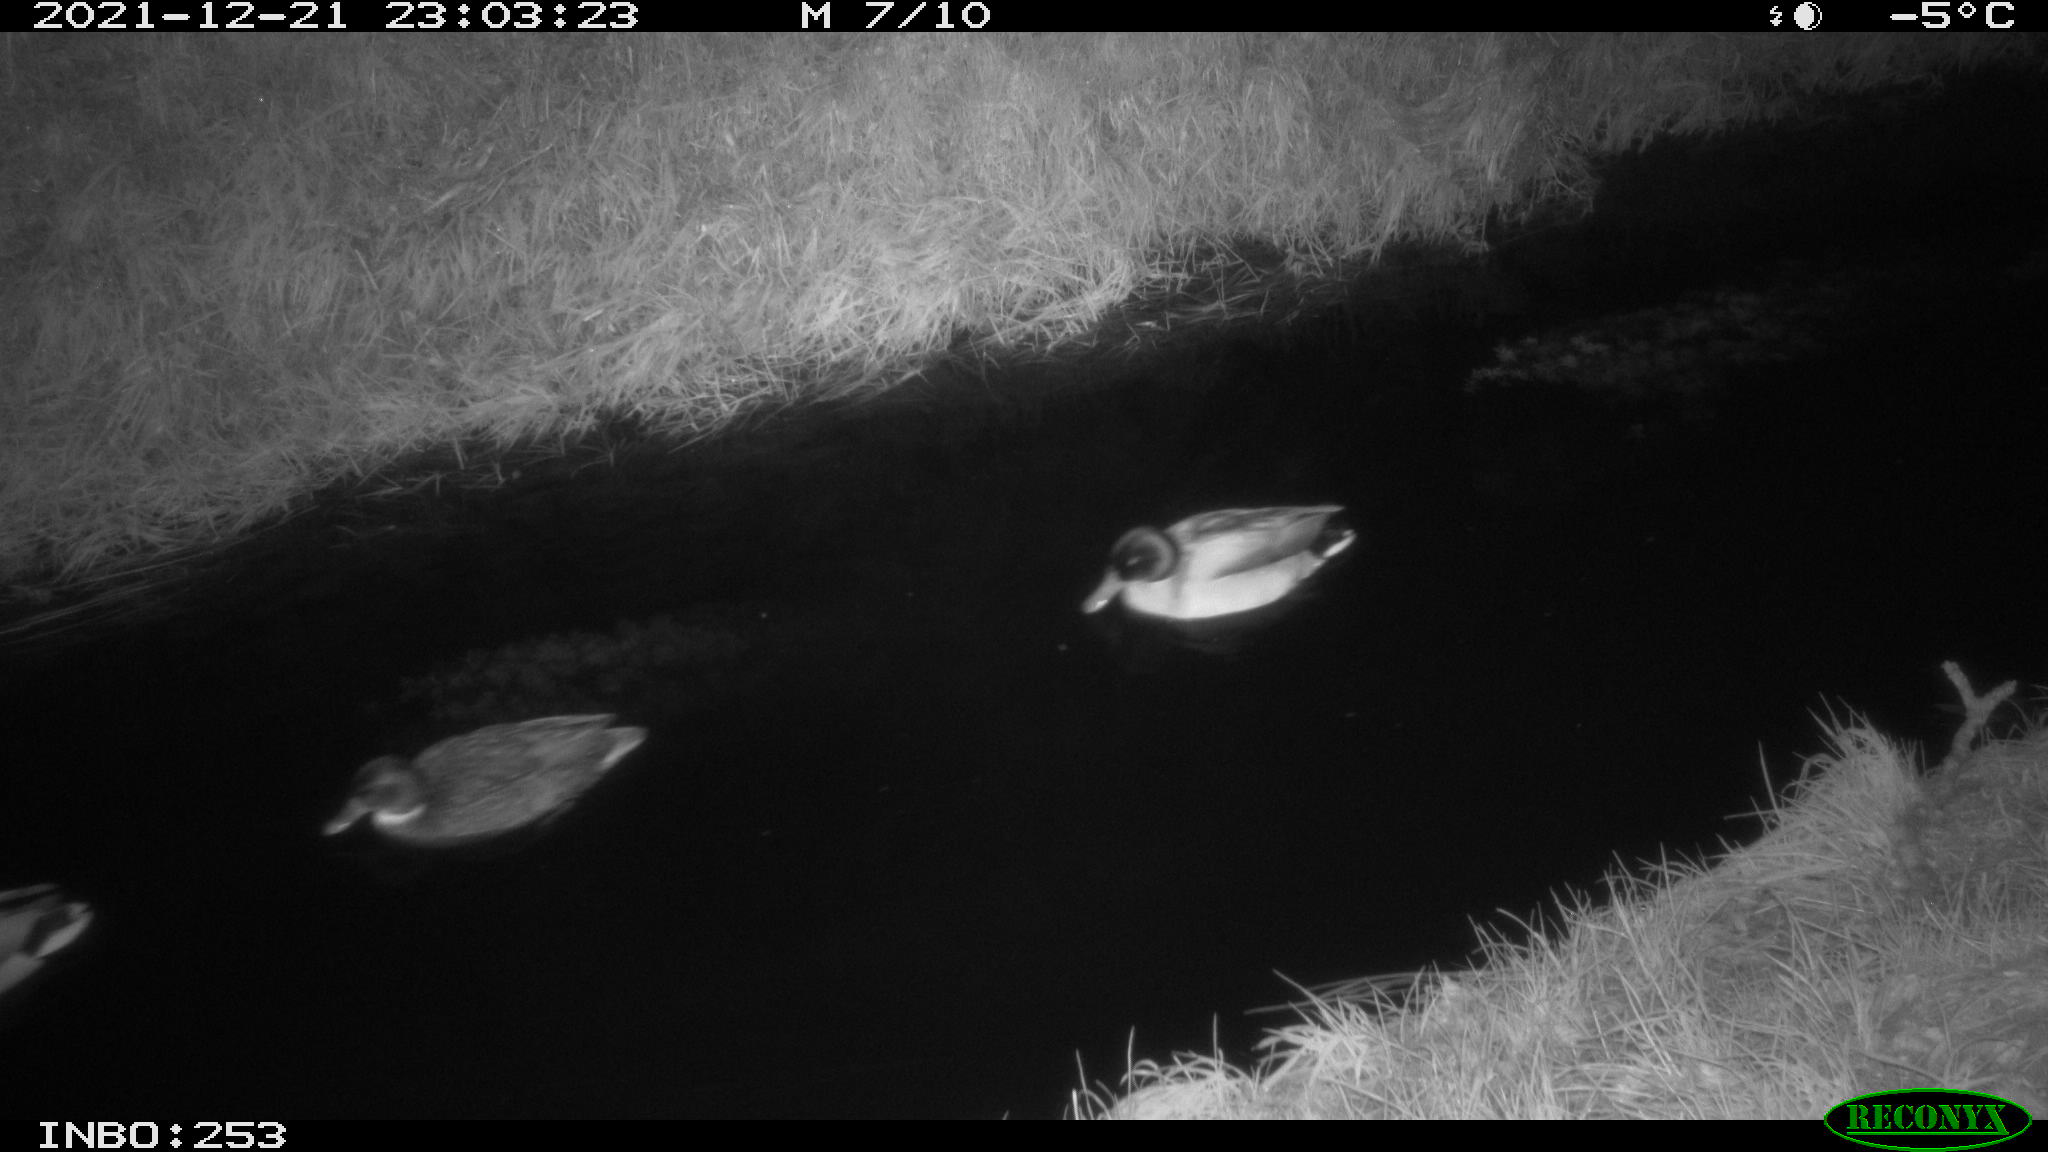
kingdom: Animalia
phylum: Chordata
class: Aves
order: Anseriformes
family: Anatidae
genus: Anas
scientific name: Anas
